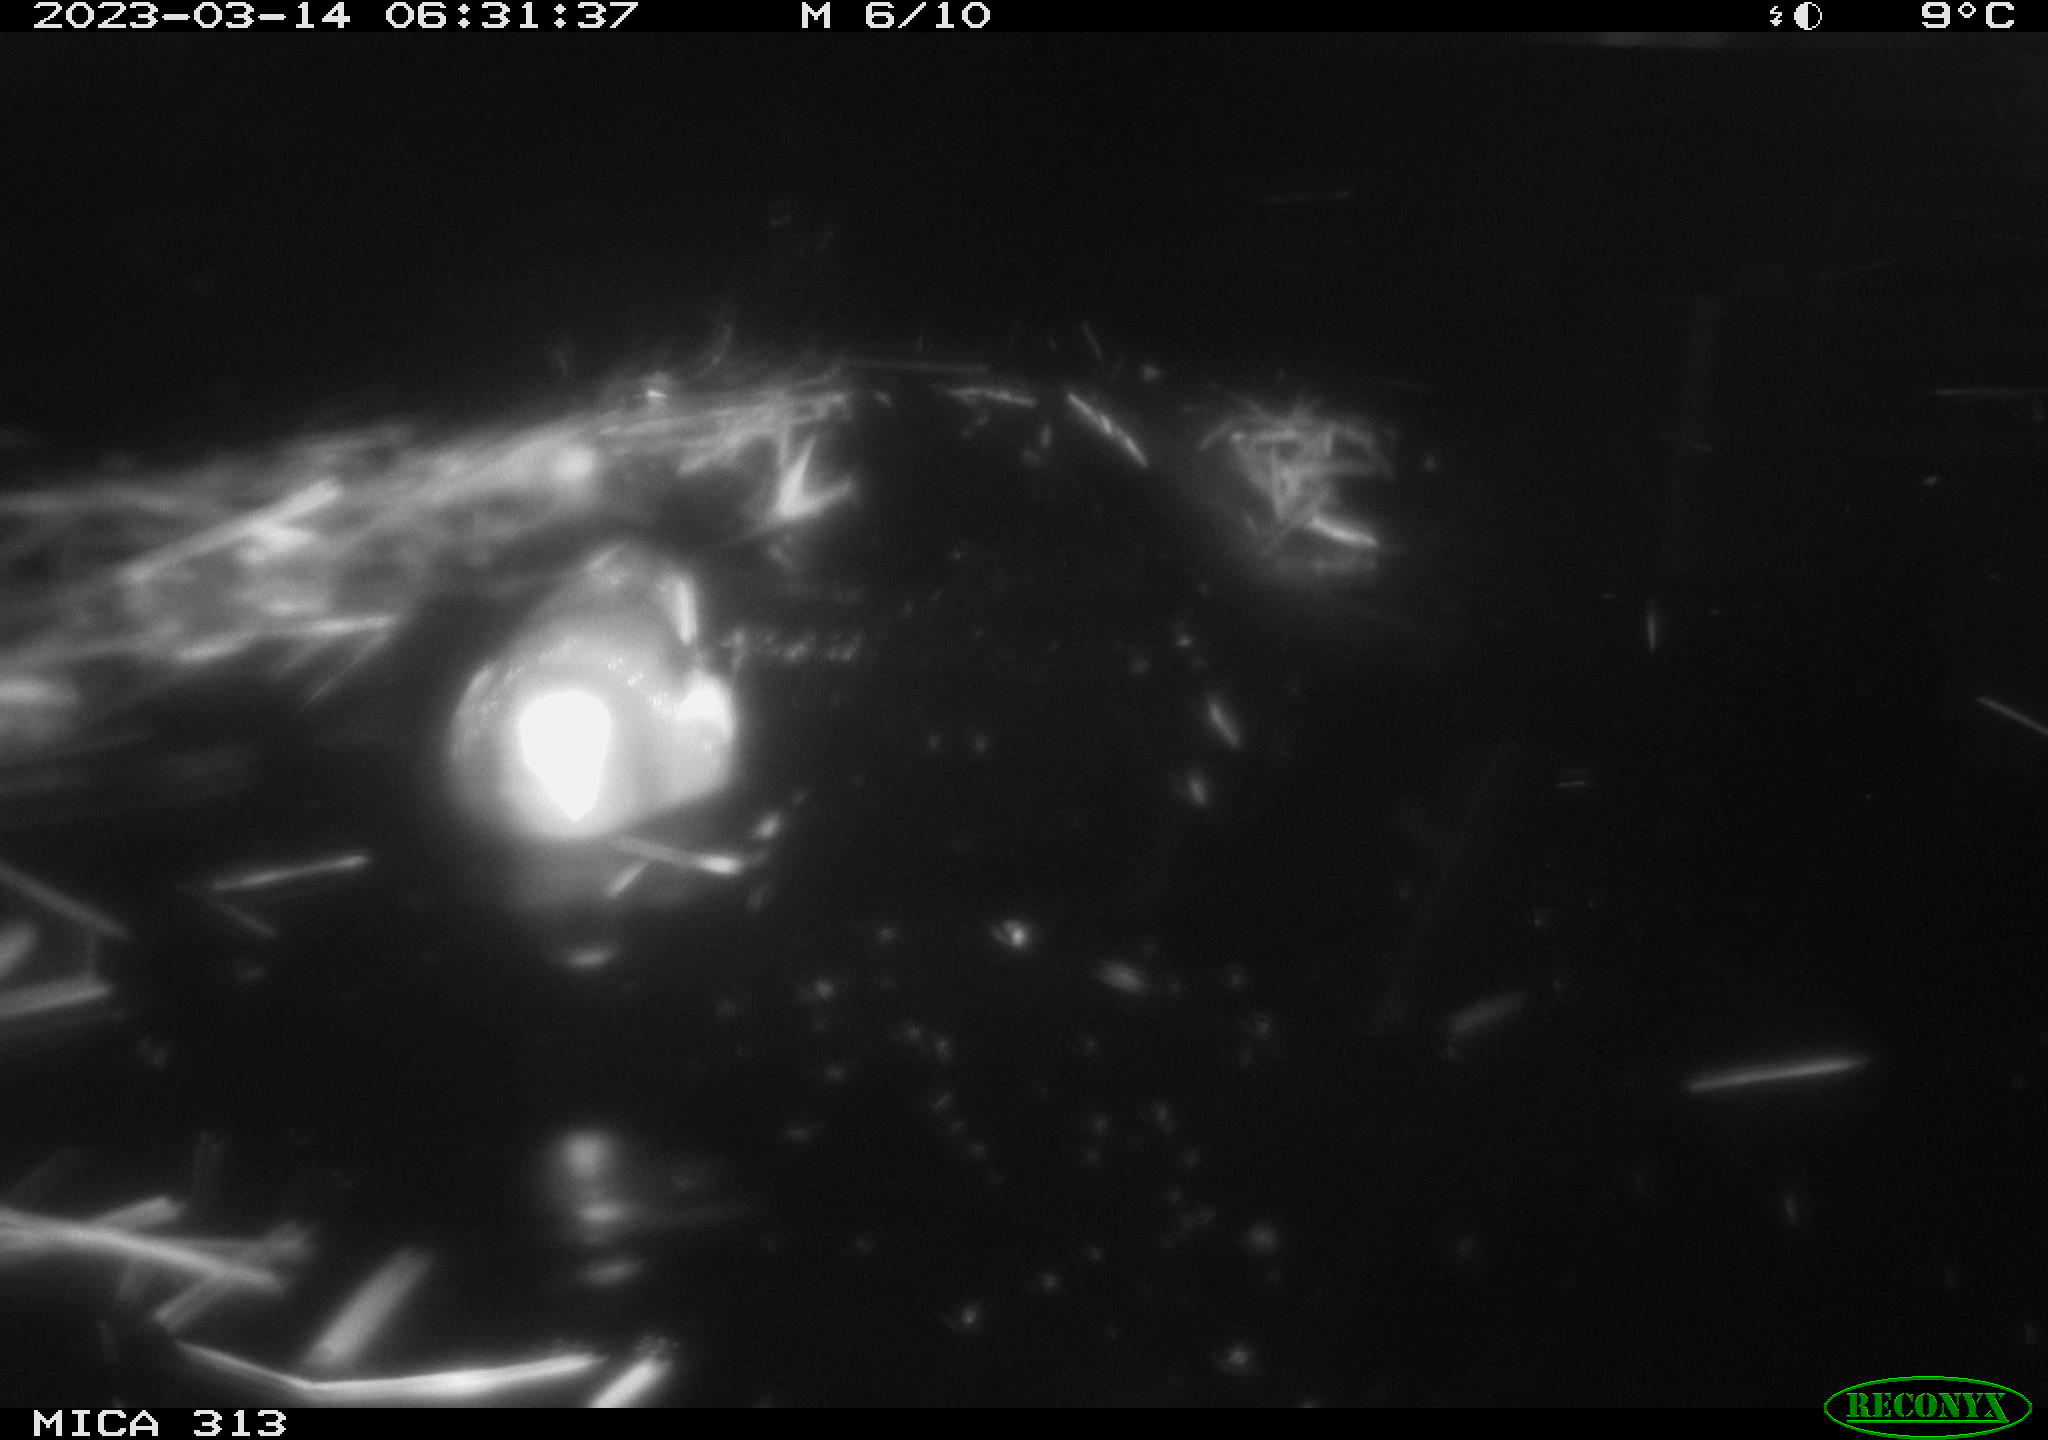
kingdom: Animalia
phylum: Chordata
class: Aves
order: Gruiformes
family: Rallidae
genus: Gallinula
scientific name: Gallinula chloropus
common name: Common moorhen
